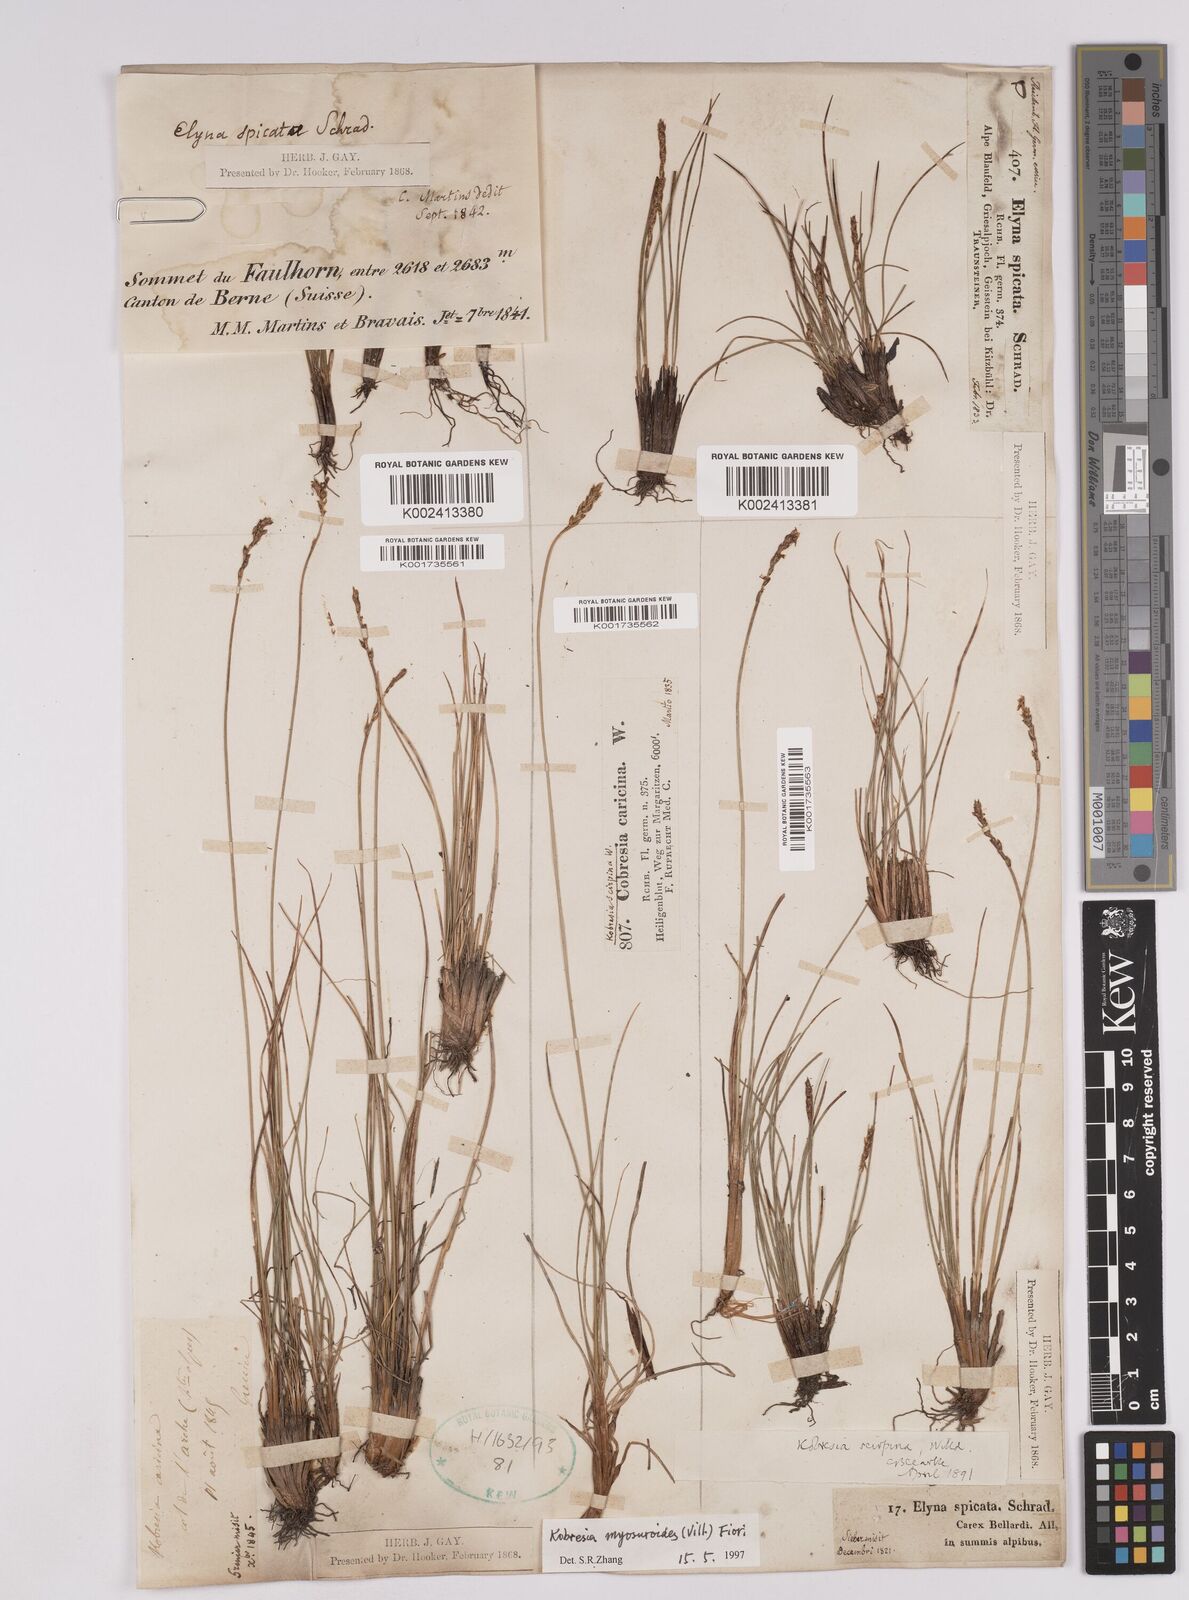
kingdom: Plantae
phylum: Tracheophyta
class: Liliopsida
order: Poales
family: Cyperaceae
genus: Carex
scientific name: Carex myosuroides
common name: Bellard's bog sedge
